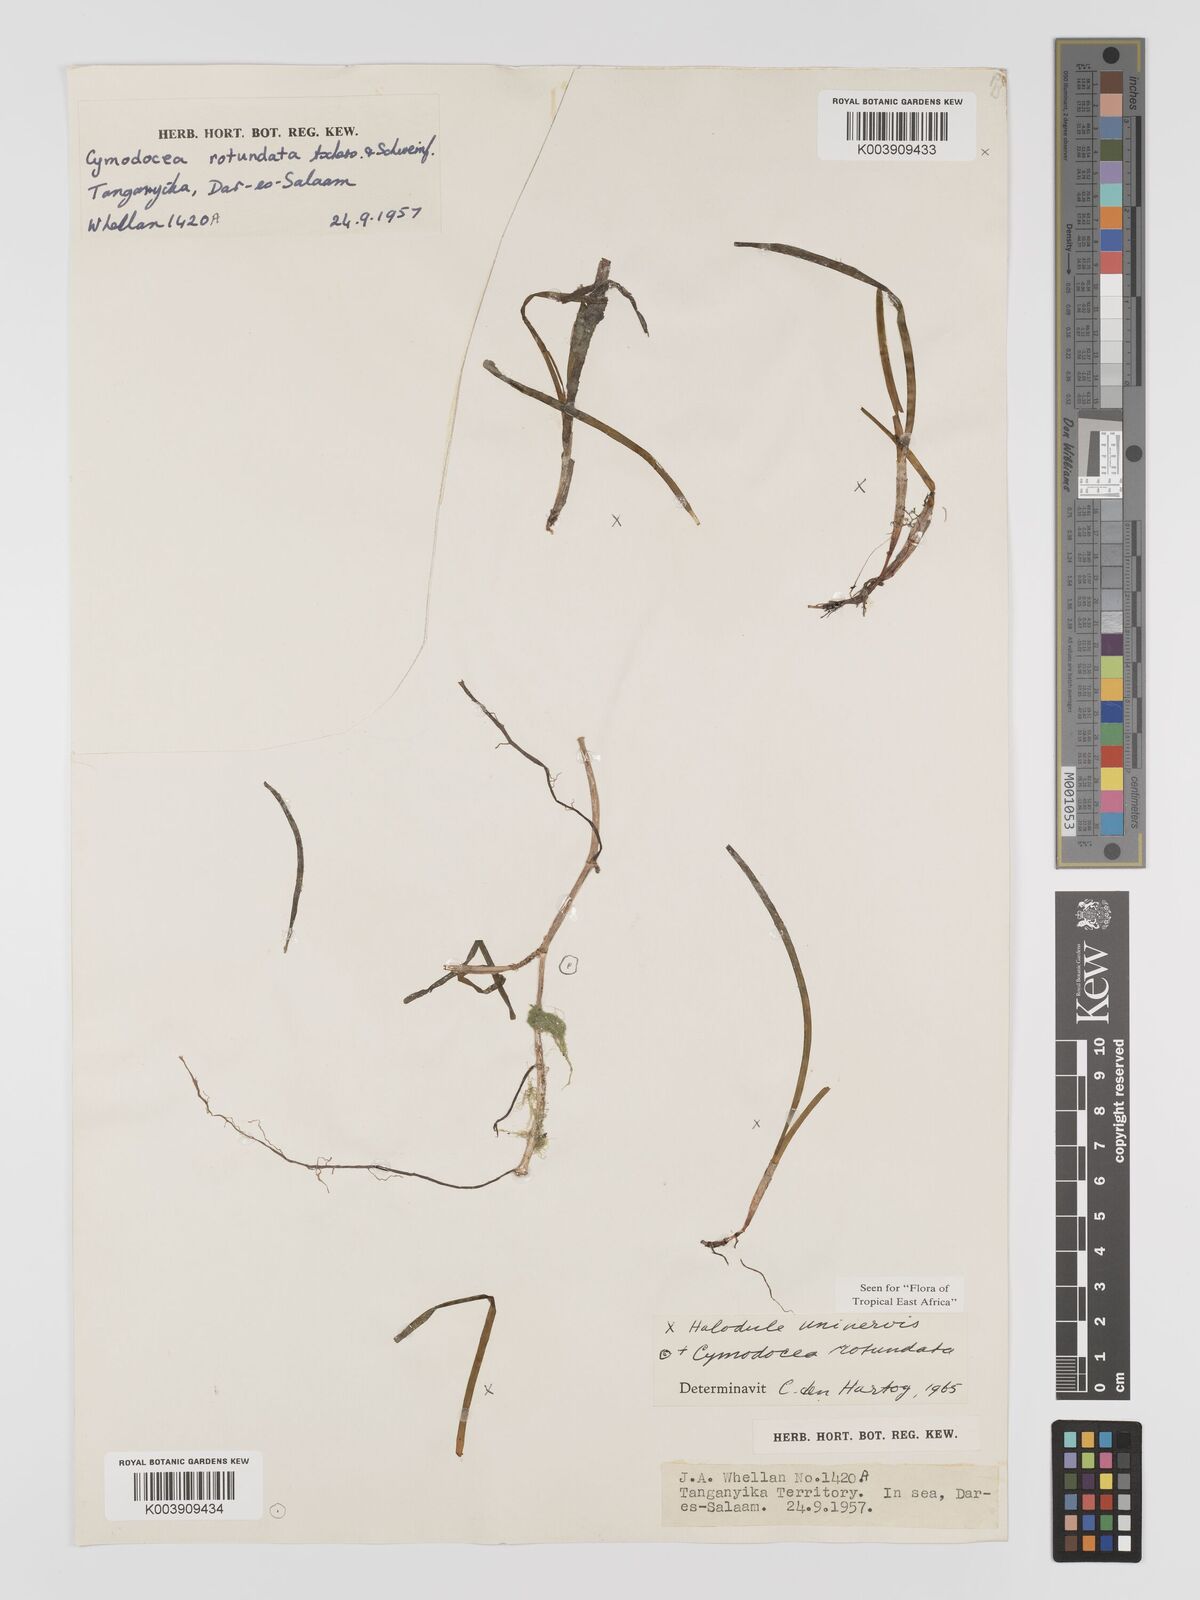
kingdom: Plantae
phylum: Tracheophyta
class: Liliopsida
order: Alismatales
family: Cymodoceaceae
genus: Cymodocea
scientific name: Cymodocea rotundata
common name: Species code: cr
